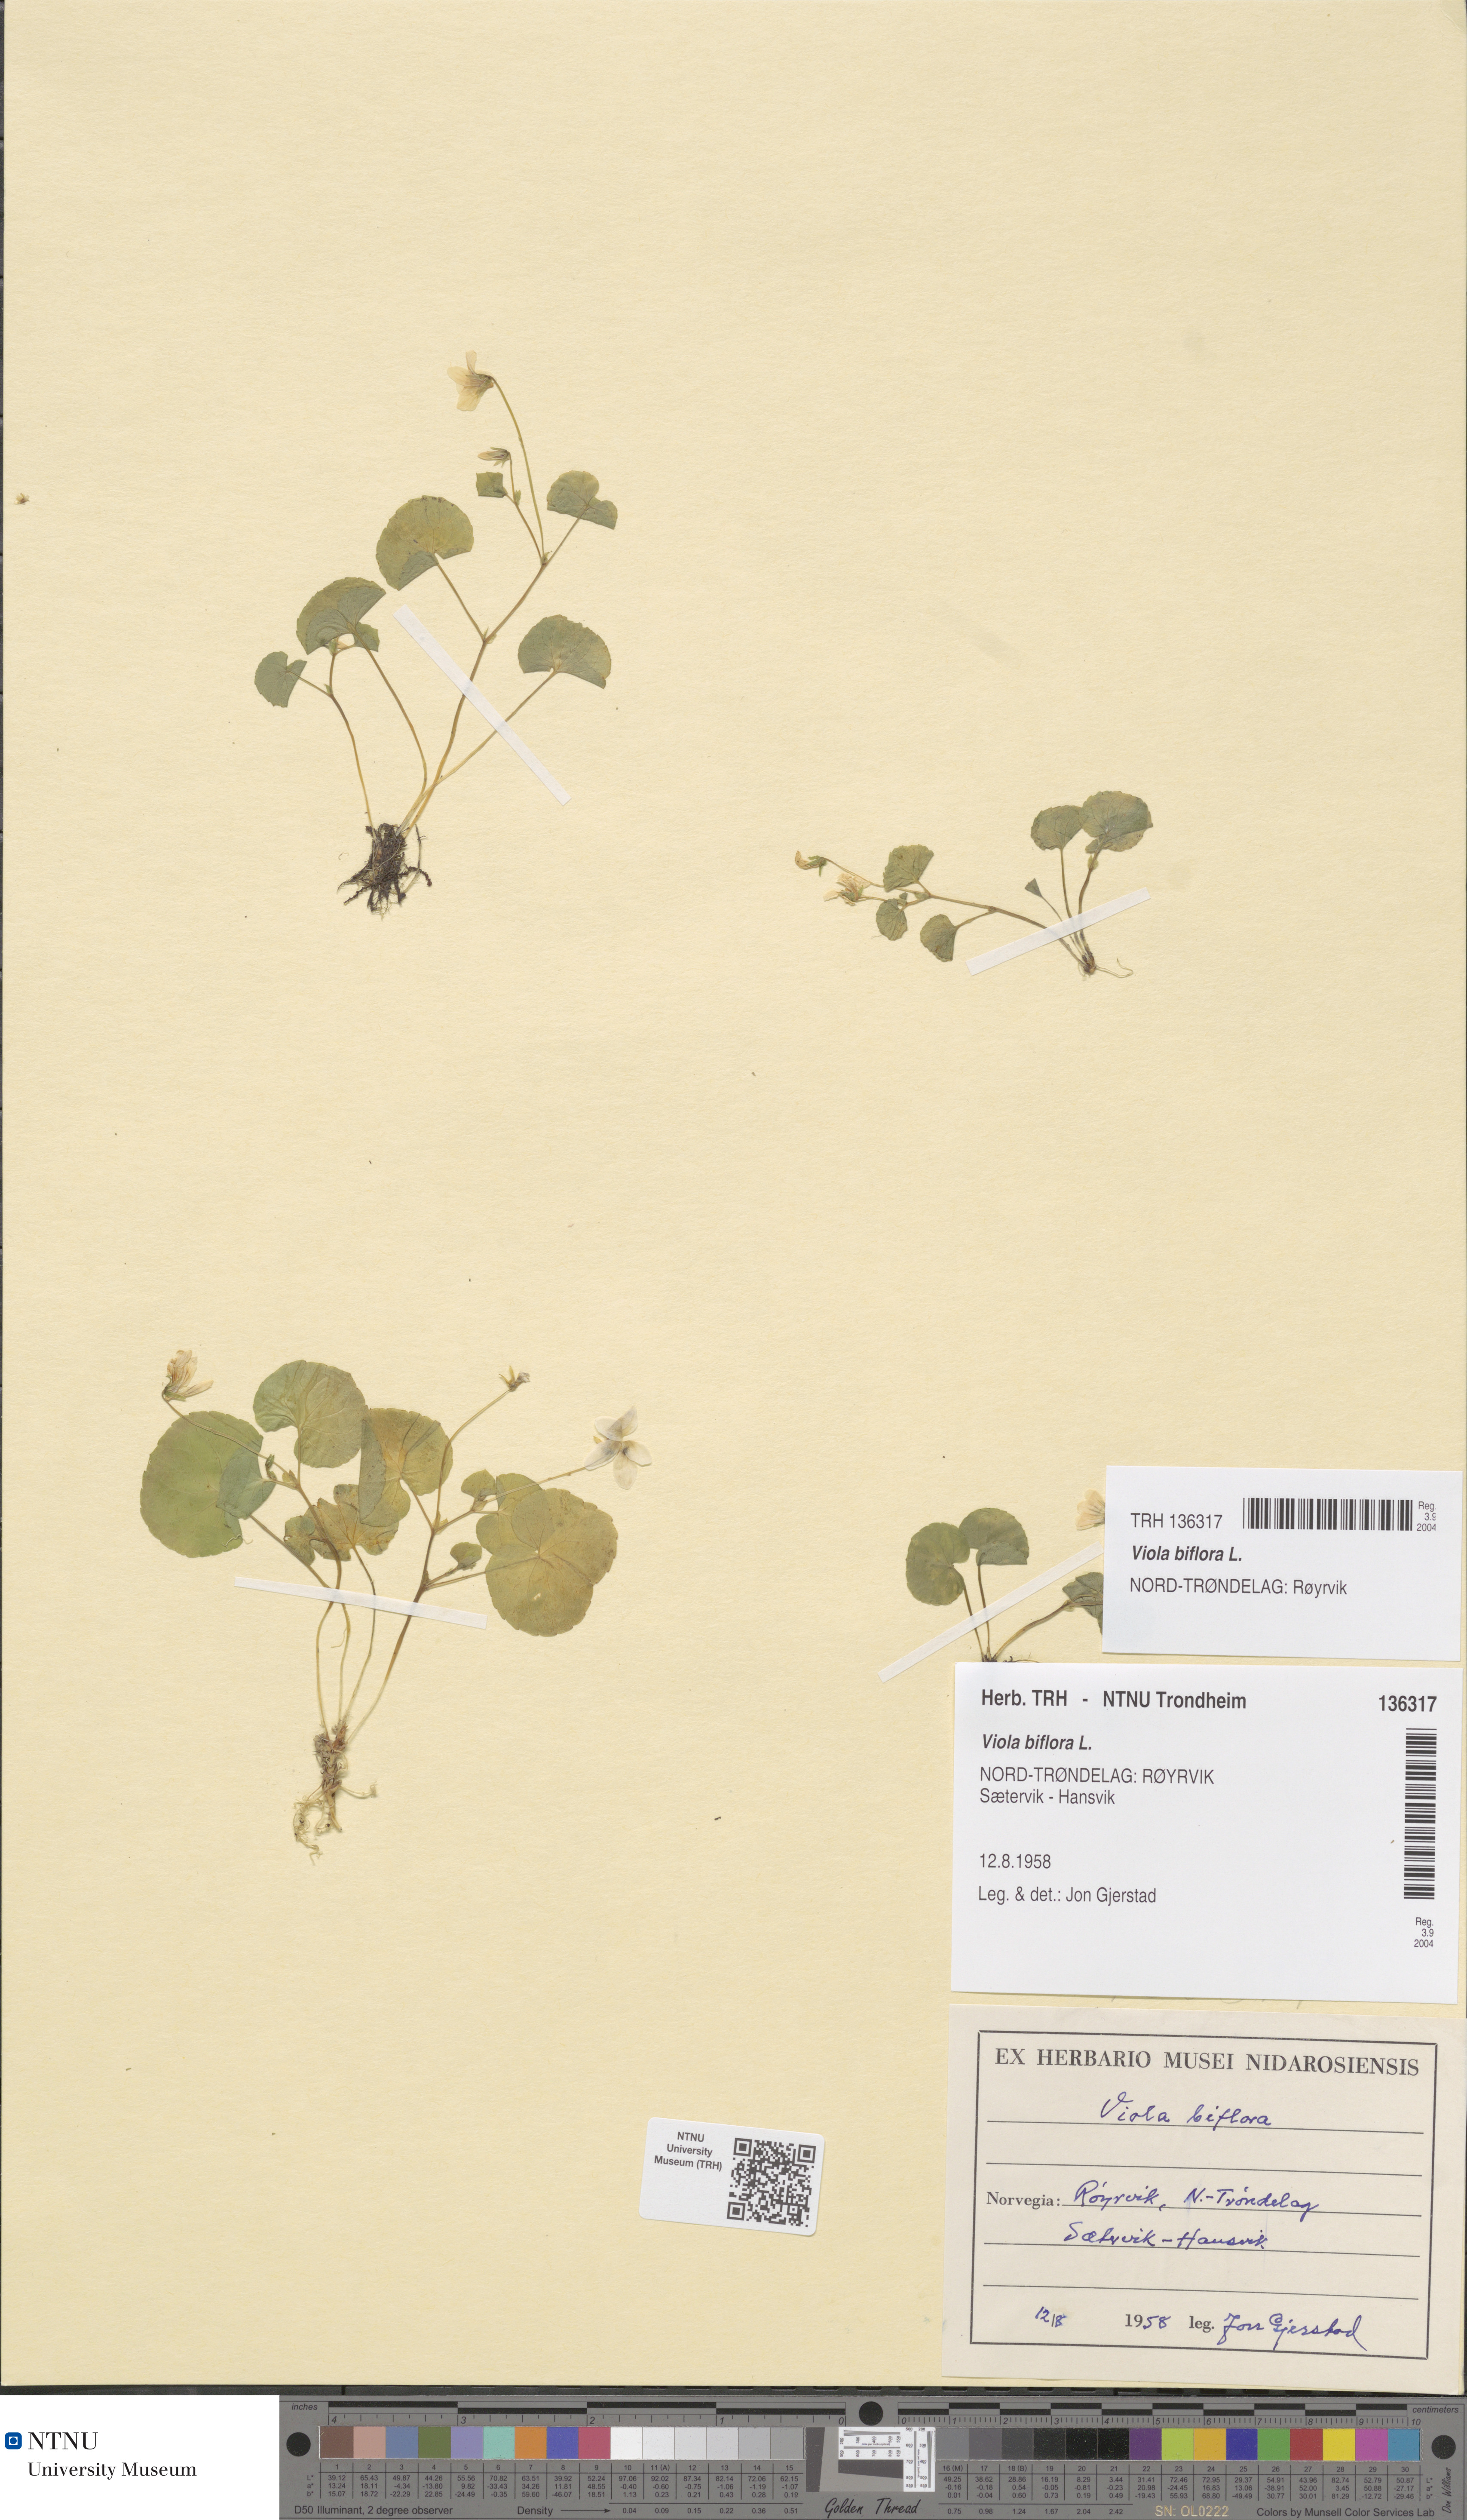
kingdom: Plantae
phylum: Tracheophyta
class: Magnoliopsida
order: Malpighiales
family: Violaceae
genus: Viola
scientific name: Viola biflora
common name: Alpine yellow violet
